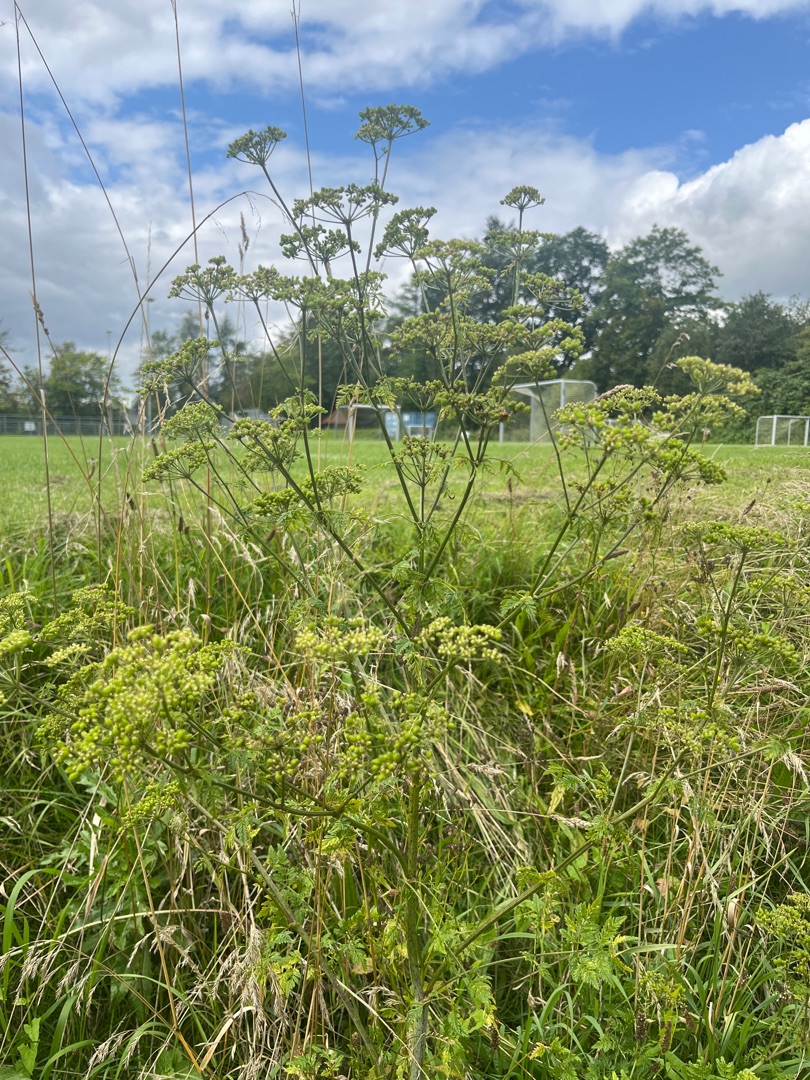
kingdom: Plantae
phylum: Tracheophyta
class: Magnoliopsida
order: Apiales
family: Apiaceae
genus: Conium
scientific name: Conium maculatum
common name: Skarntyde
